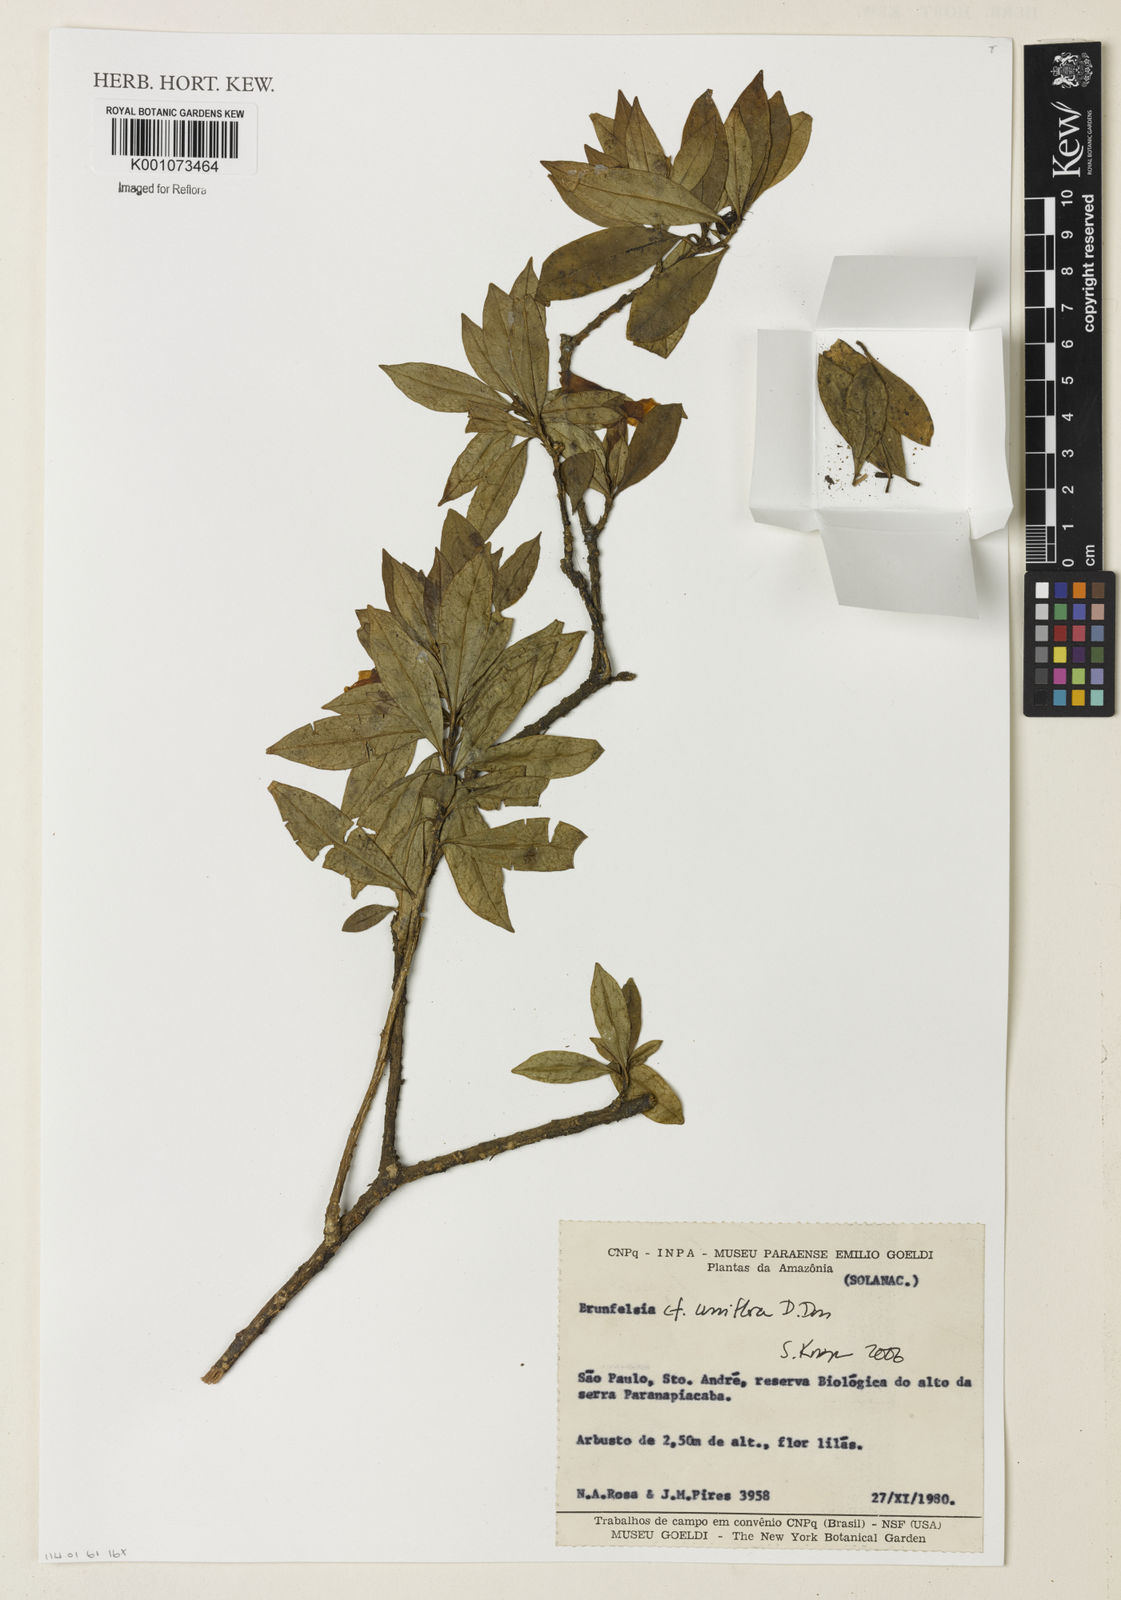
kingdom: Plantae
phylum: Tracheophyta
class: Magnoliopsida
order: Solanales
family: Solanaceae
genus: Brunfelsia
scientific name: Brunfelsia uniflora
